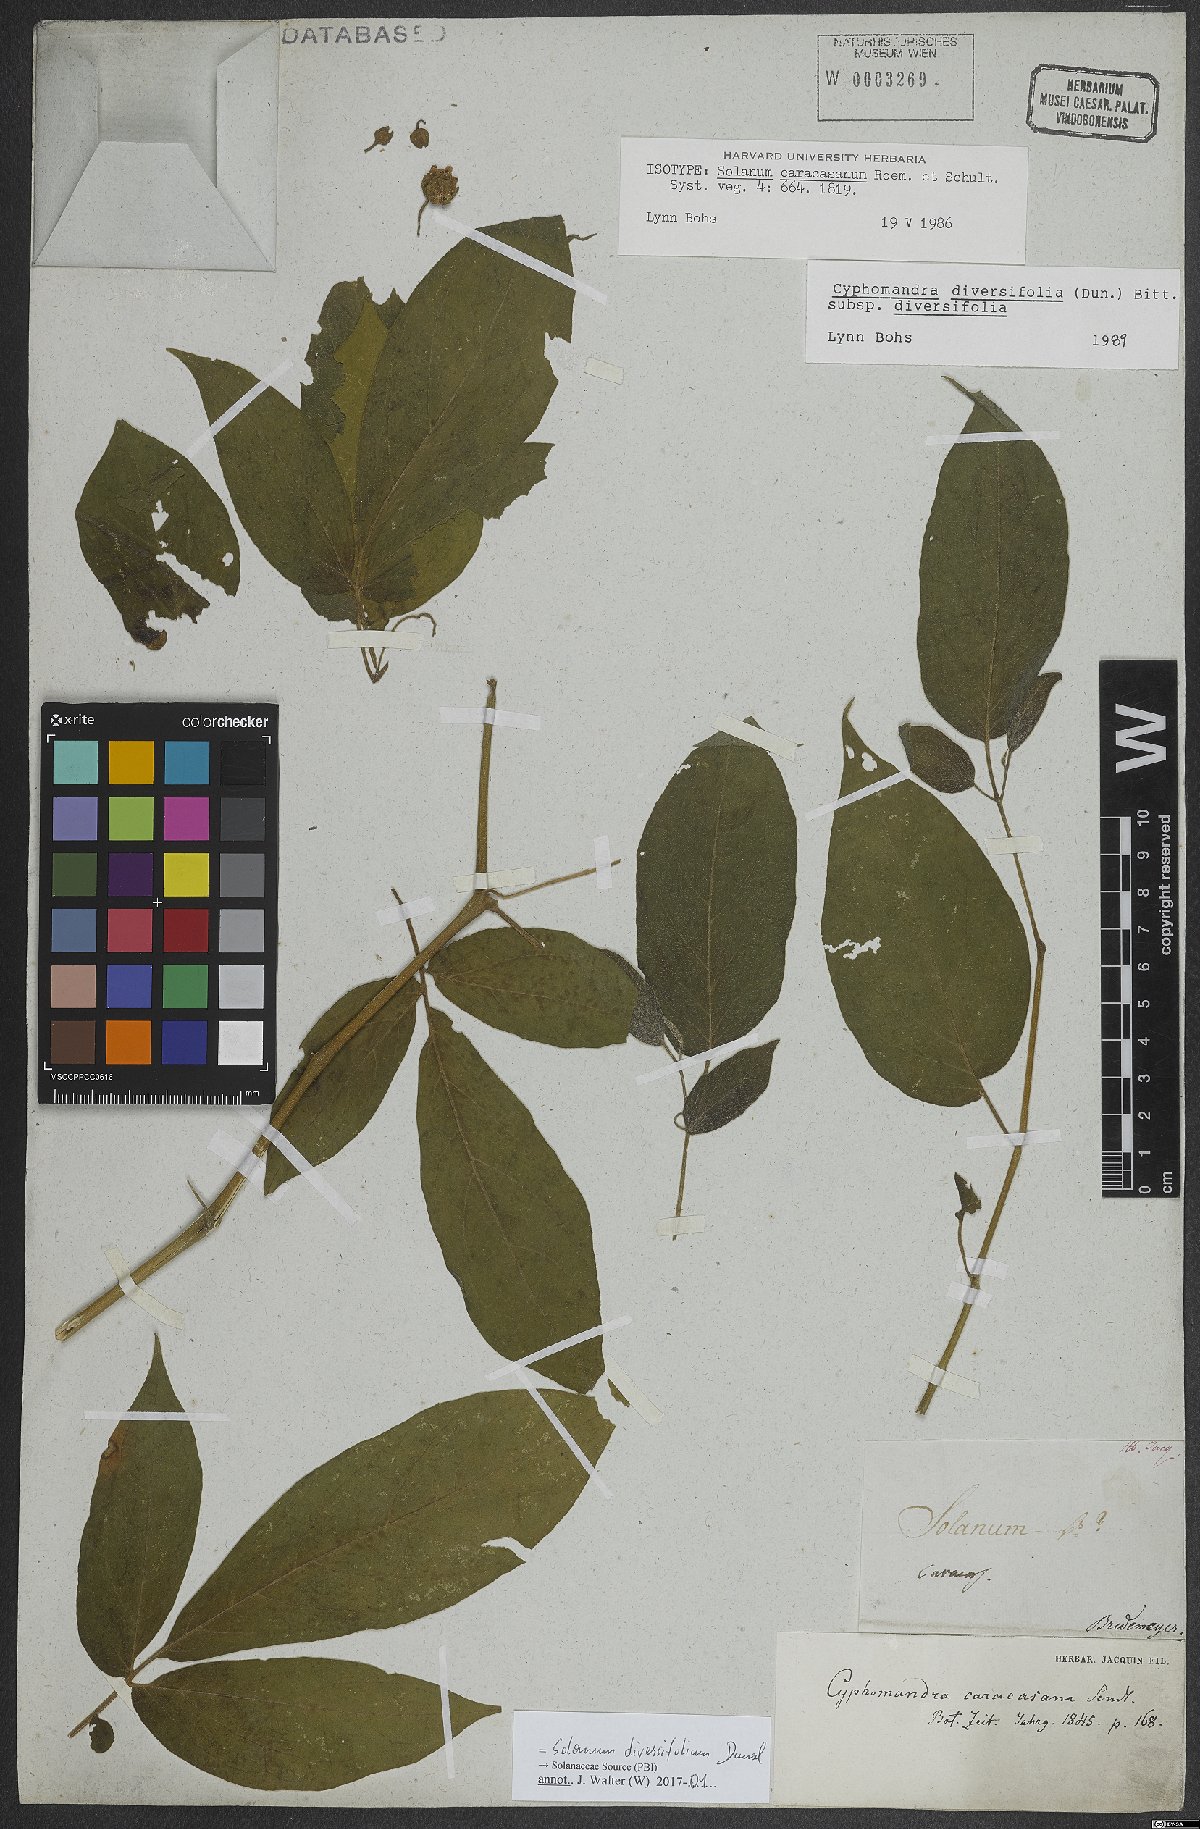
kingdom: Plantae
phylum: Tracheophyta
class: Magnoliopsida
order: Solanales
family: Solanaceae
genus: Solanum
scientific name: Solanum melissarum
